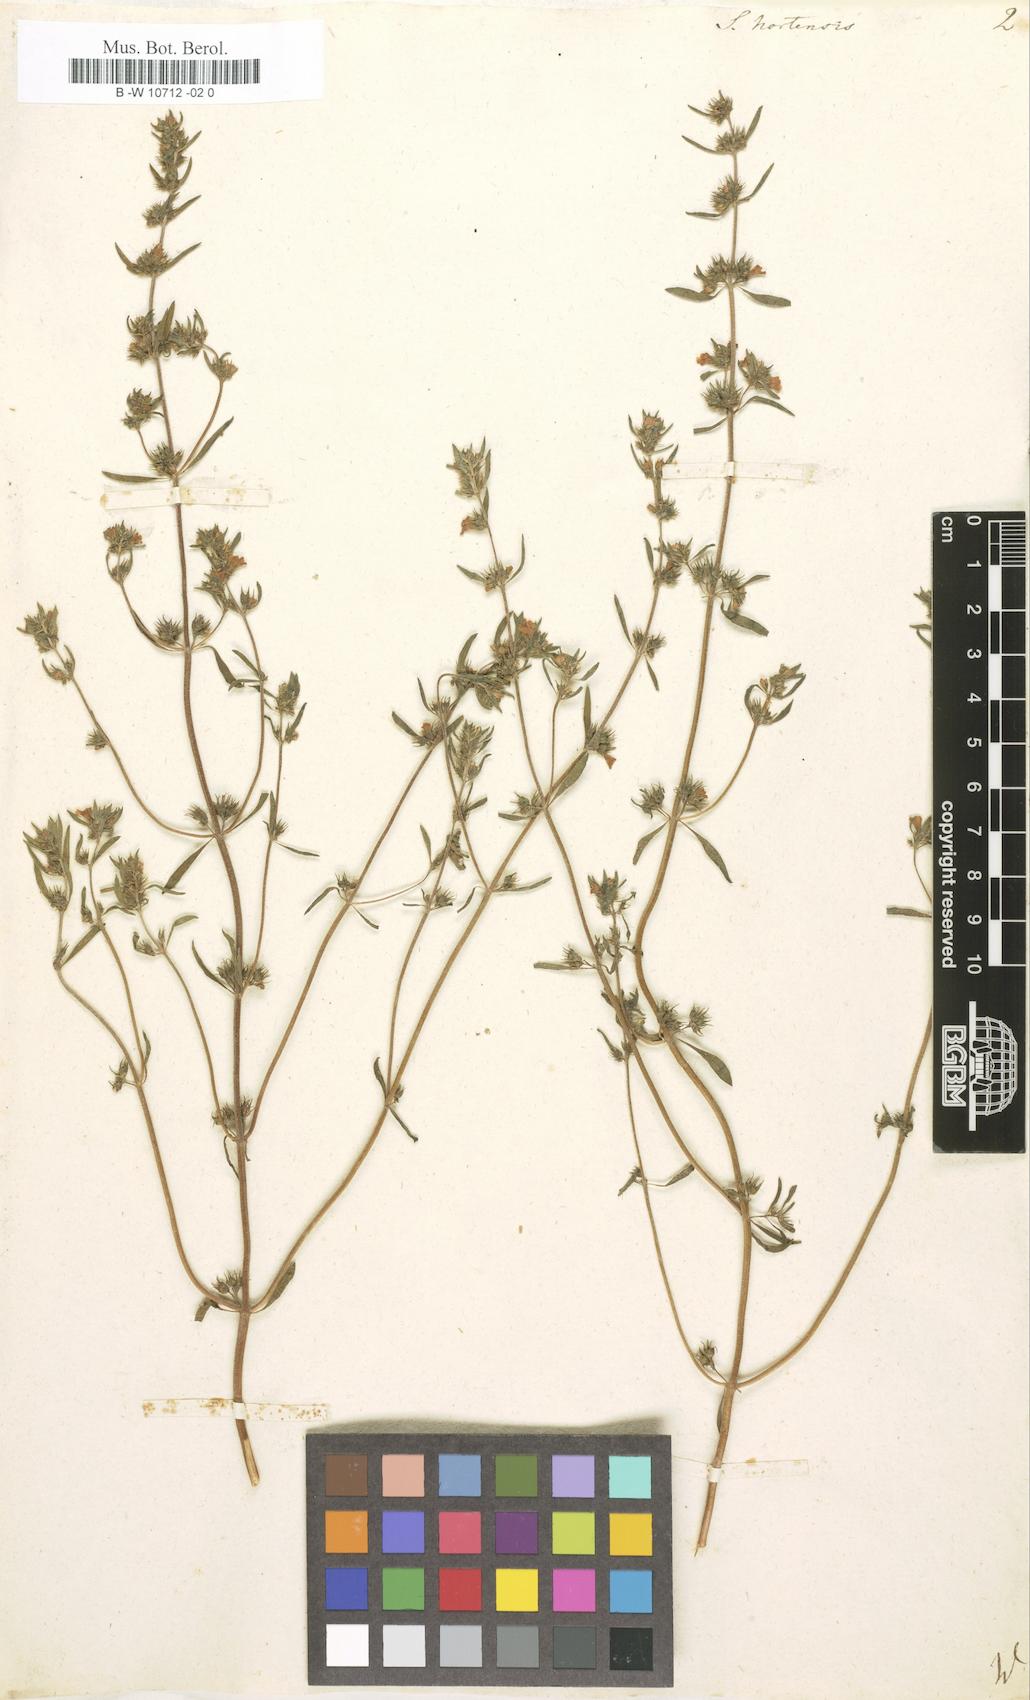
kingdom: Plantae
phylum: Tracheophyta
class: Magnoliopsida
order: Lamiales
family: Lamiaceae
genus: Satureja
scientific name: Satureja hortensis
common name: Summer savory
